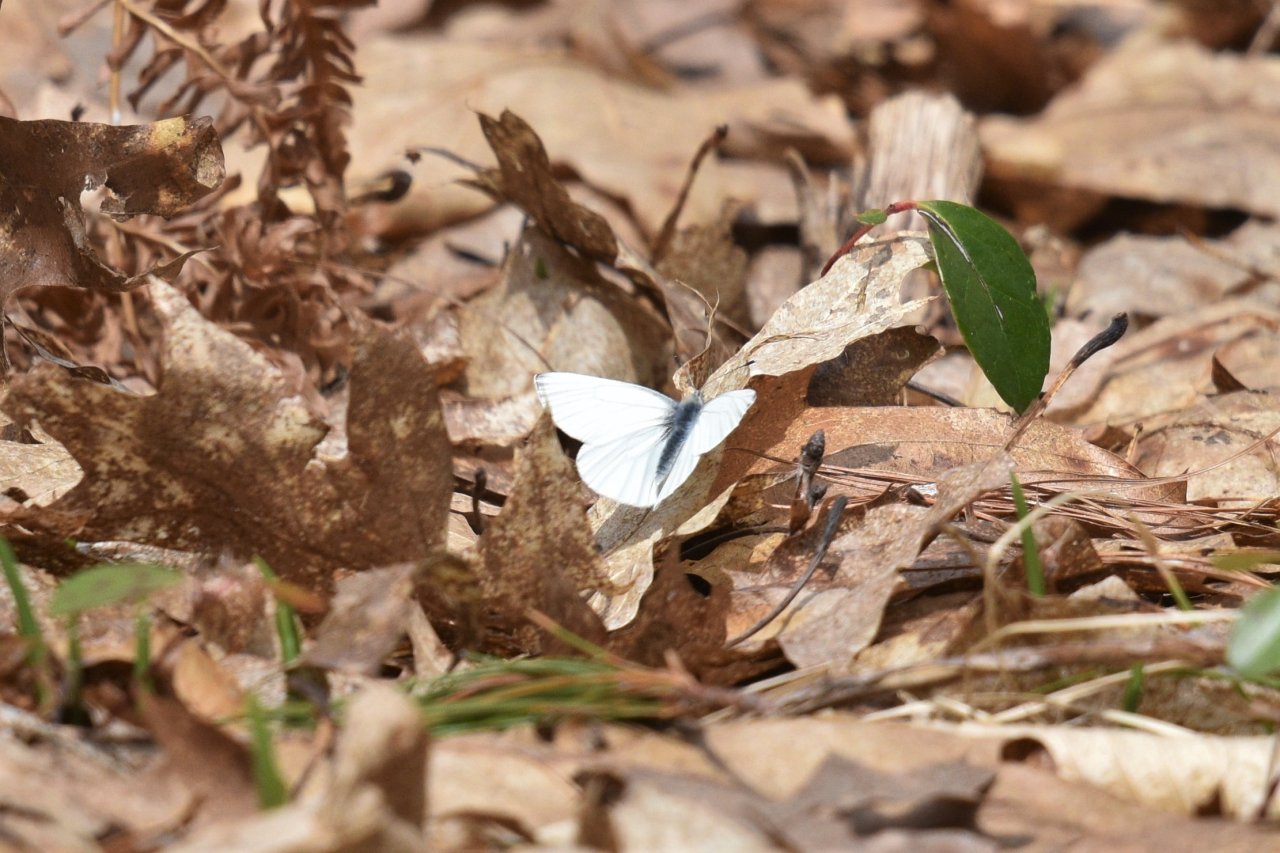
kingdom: Animalia
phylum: Arthropoda
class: Insecta
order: Lepidoptera
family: Pieridae
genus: Pieris
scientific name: Pieris oleracea
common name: Mustard White
